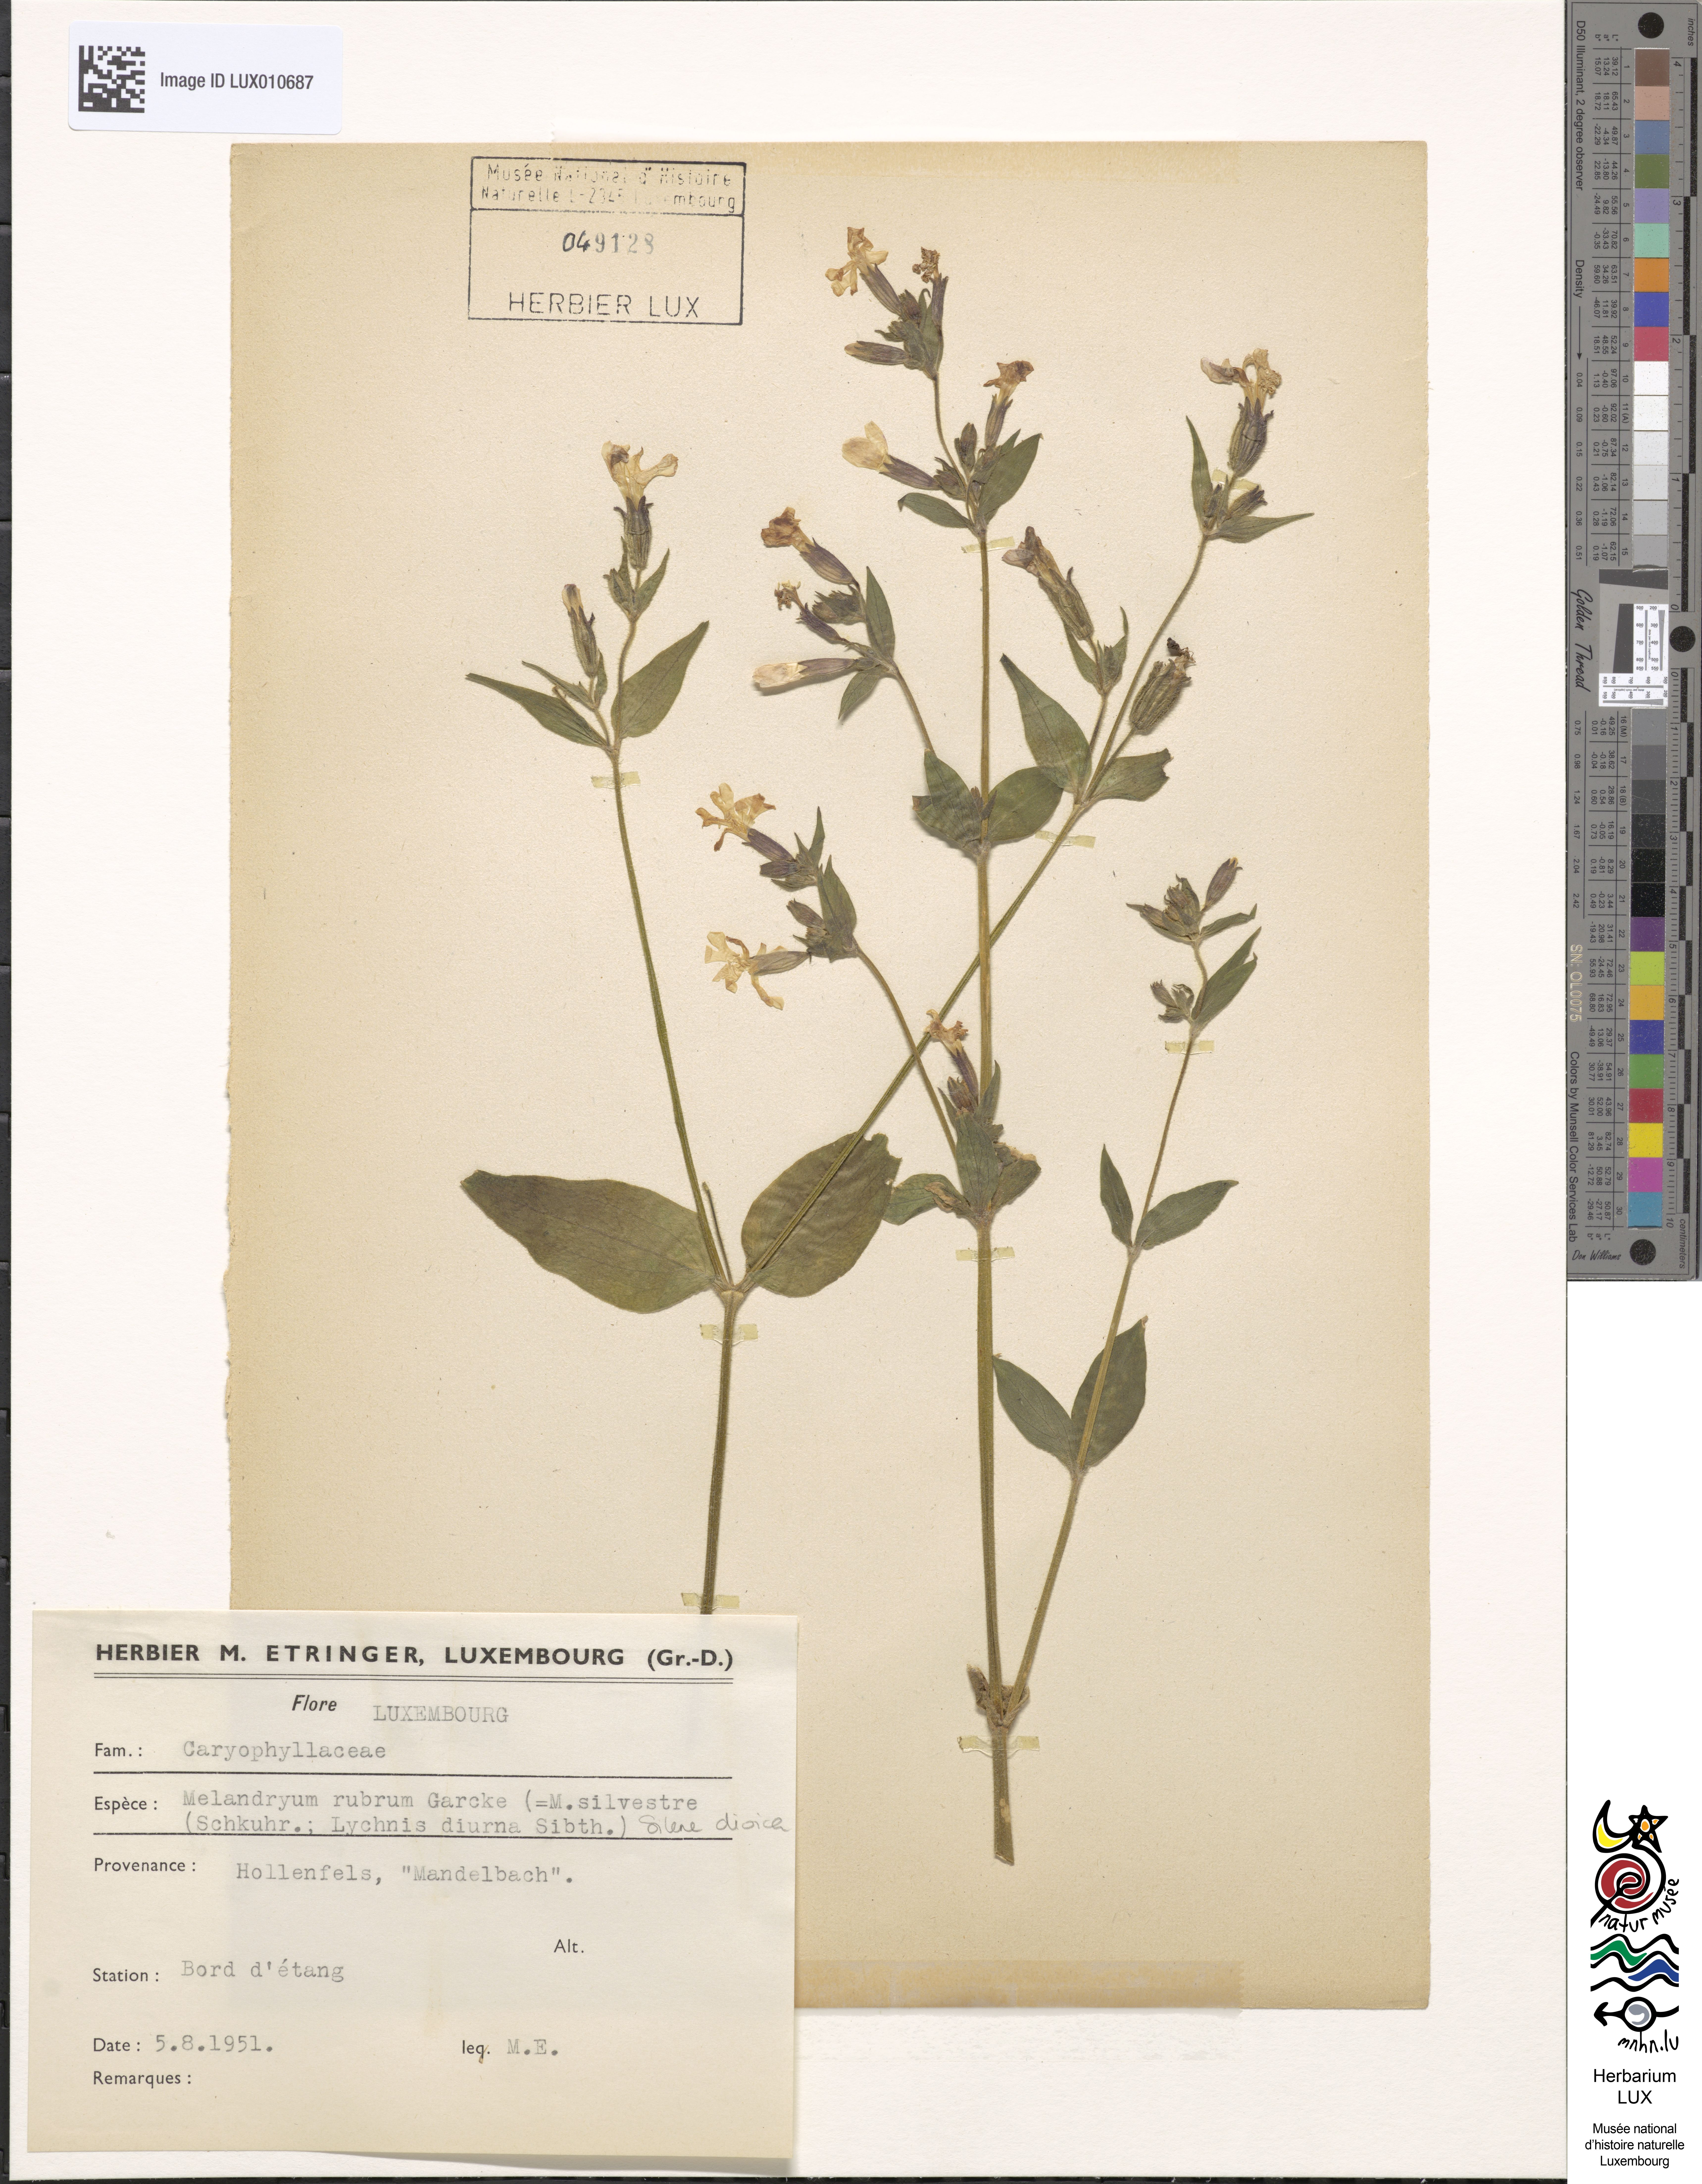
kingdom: Plantae
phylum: Tracheophyta
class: Magnoliopsida
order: Caryophyllales
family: Caryophyllaceae
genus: Silene
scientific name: Silene dioica
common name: Red campion
